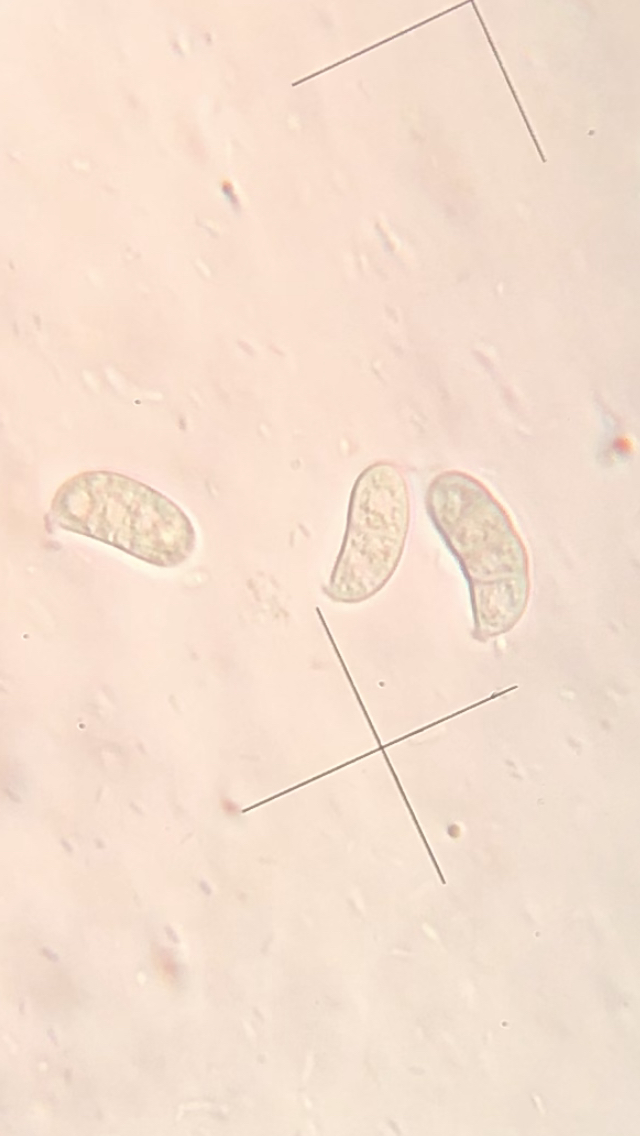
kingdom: Fungi
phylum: Basidiomycota
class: Dacrymycetes
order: Dacrymycetales
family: Dacrymycetaceae
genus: Dacrymyces
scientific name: Dacrymyces stillatus
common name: almindelig tåresvamp
